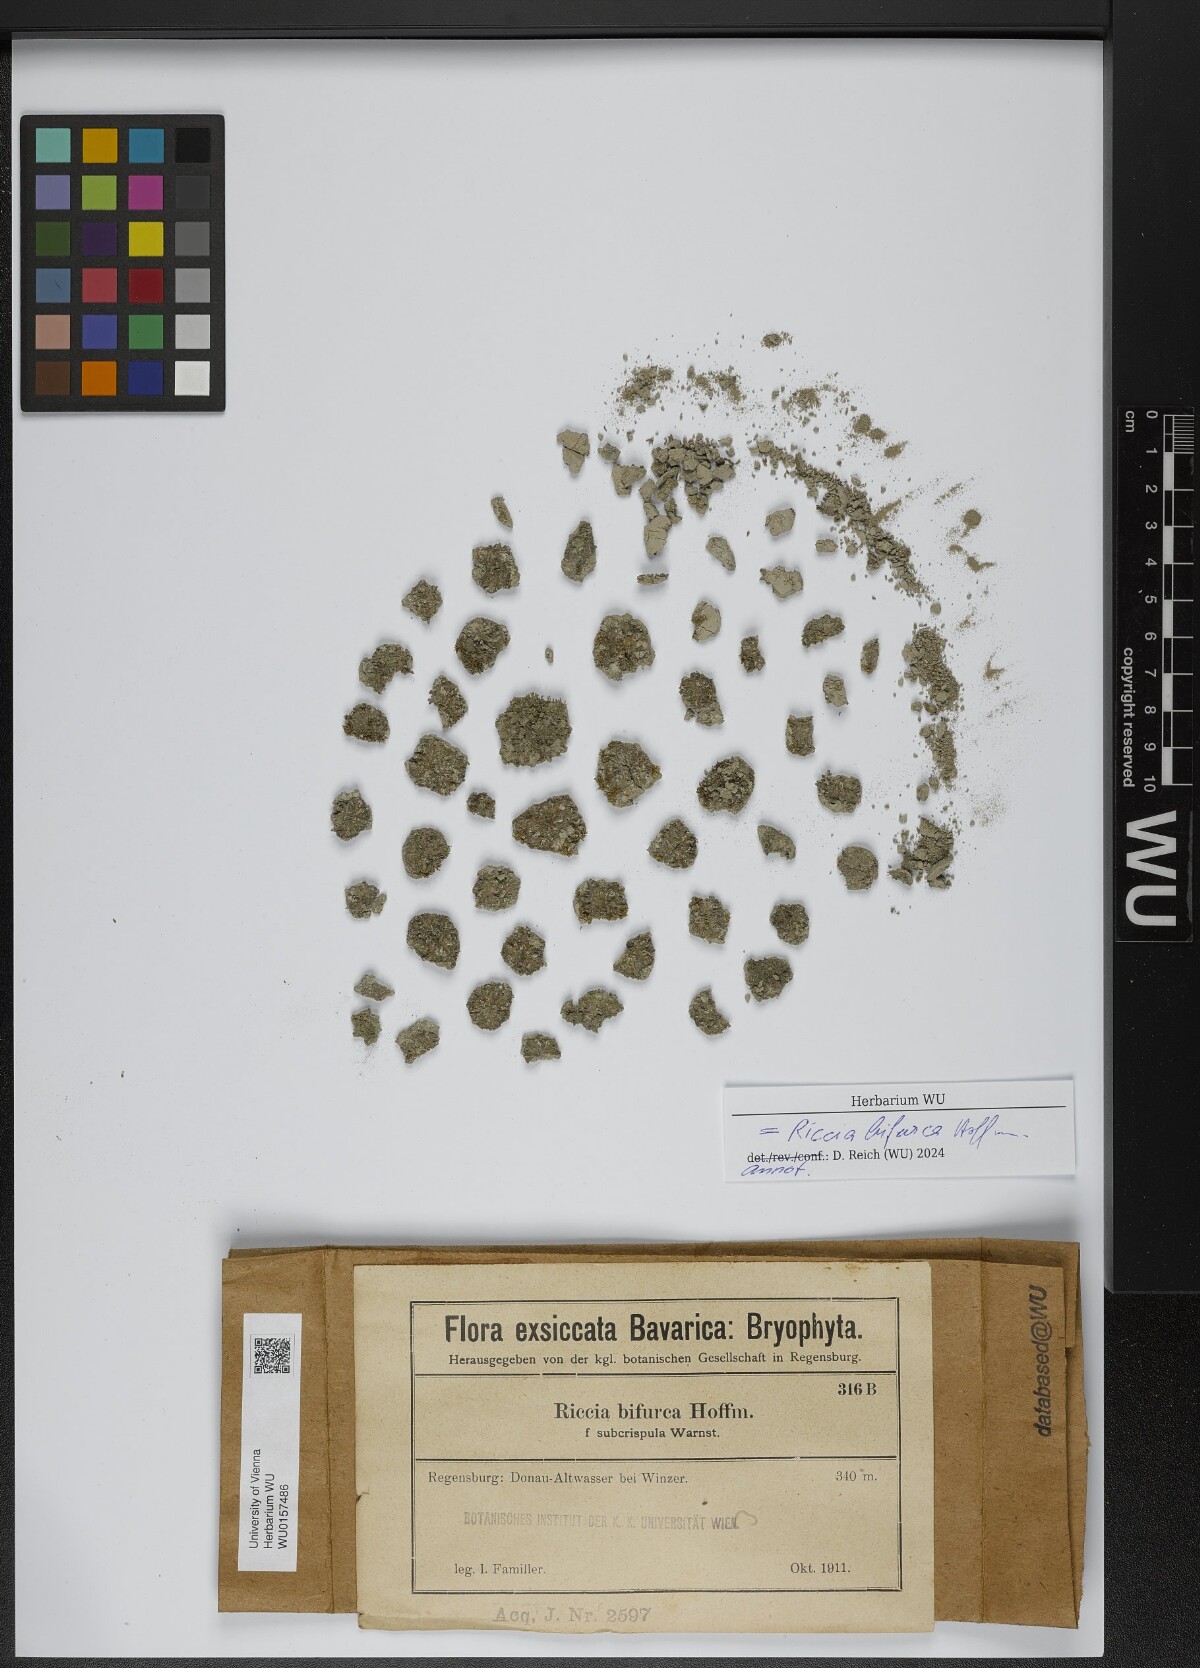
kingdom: Plantae
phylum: Marchantiophyta
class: Marchantiopsida
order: Marchantiales
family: Ricciaceae
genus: Riccia
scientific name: Riccia bifurca
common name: Lizard crystalwort
